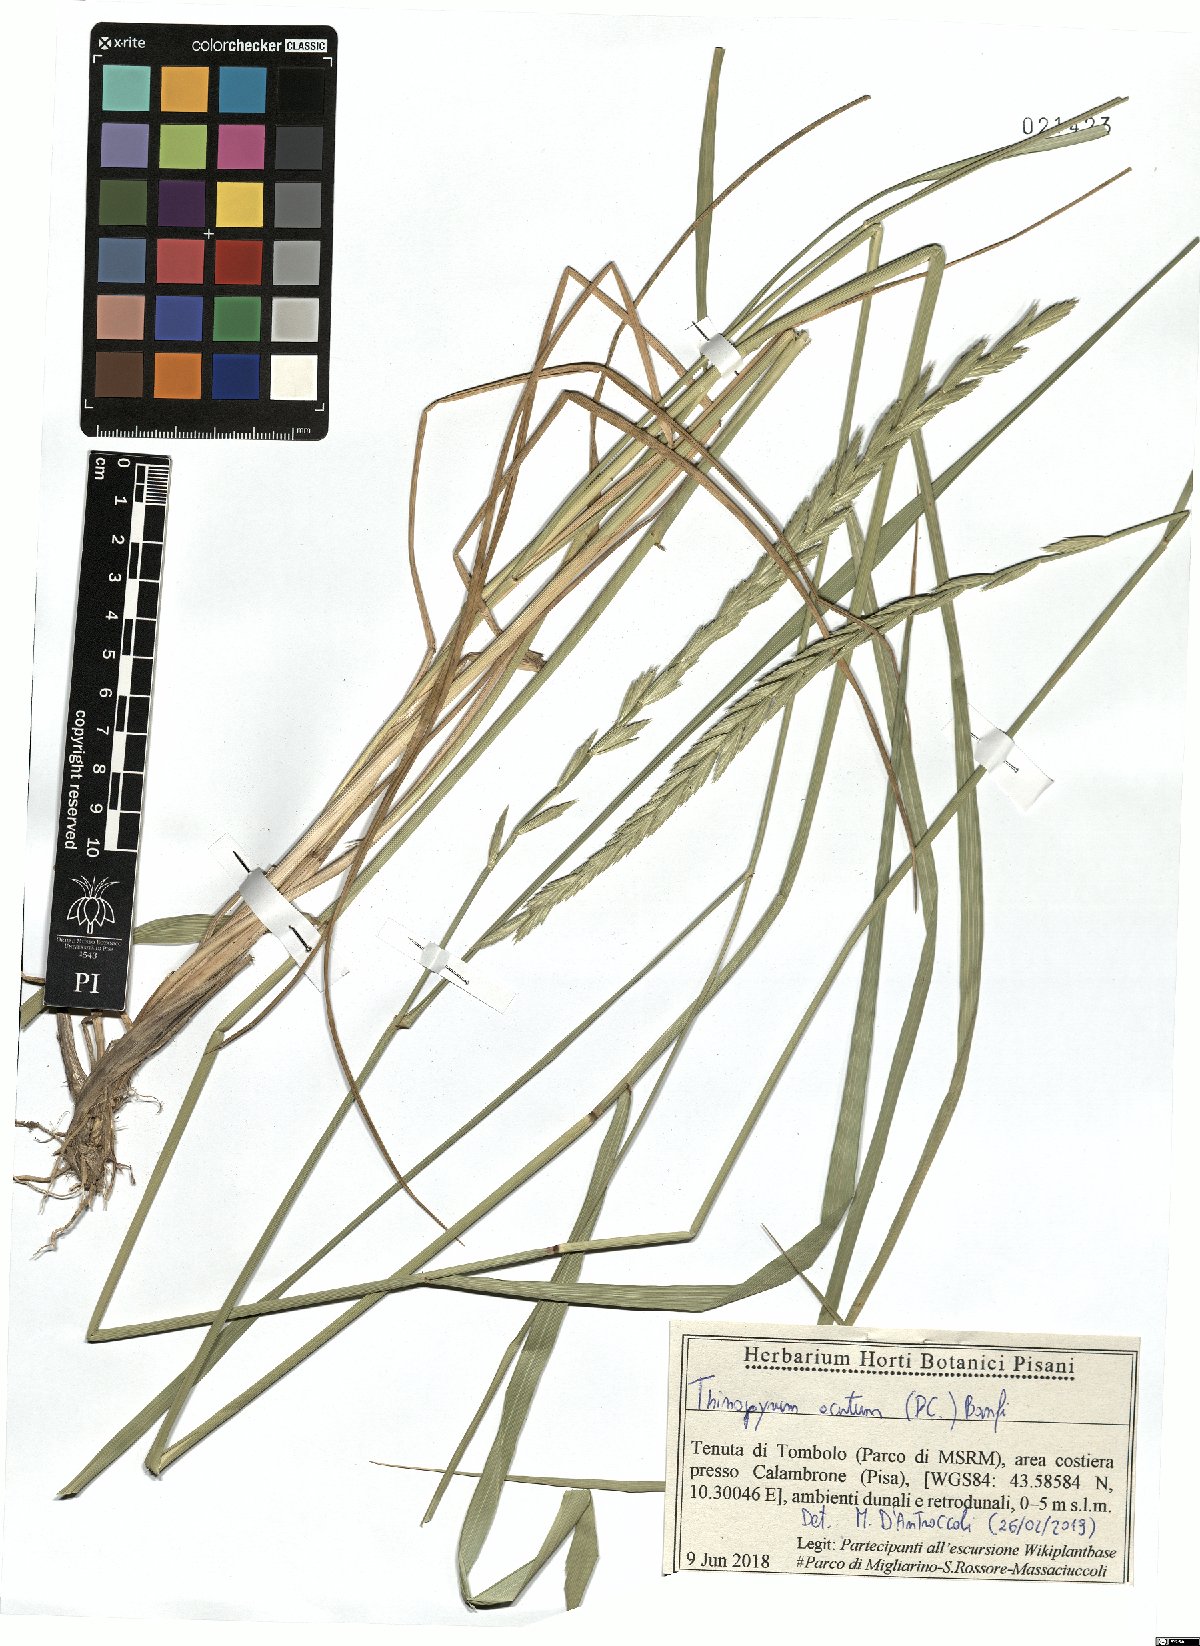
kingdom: Plantae
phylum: Tracheophyta
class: Liliopsida
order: Poales
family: Poaceae
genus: Thinopyrum
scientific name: Thinopyrum acutum
